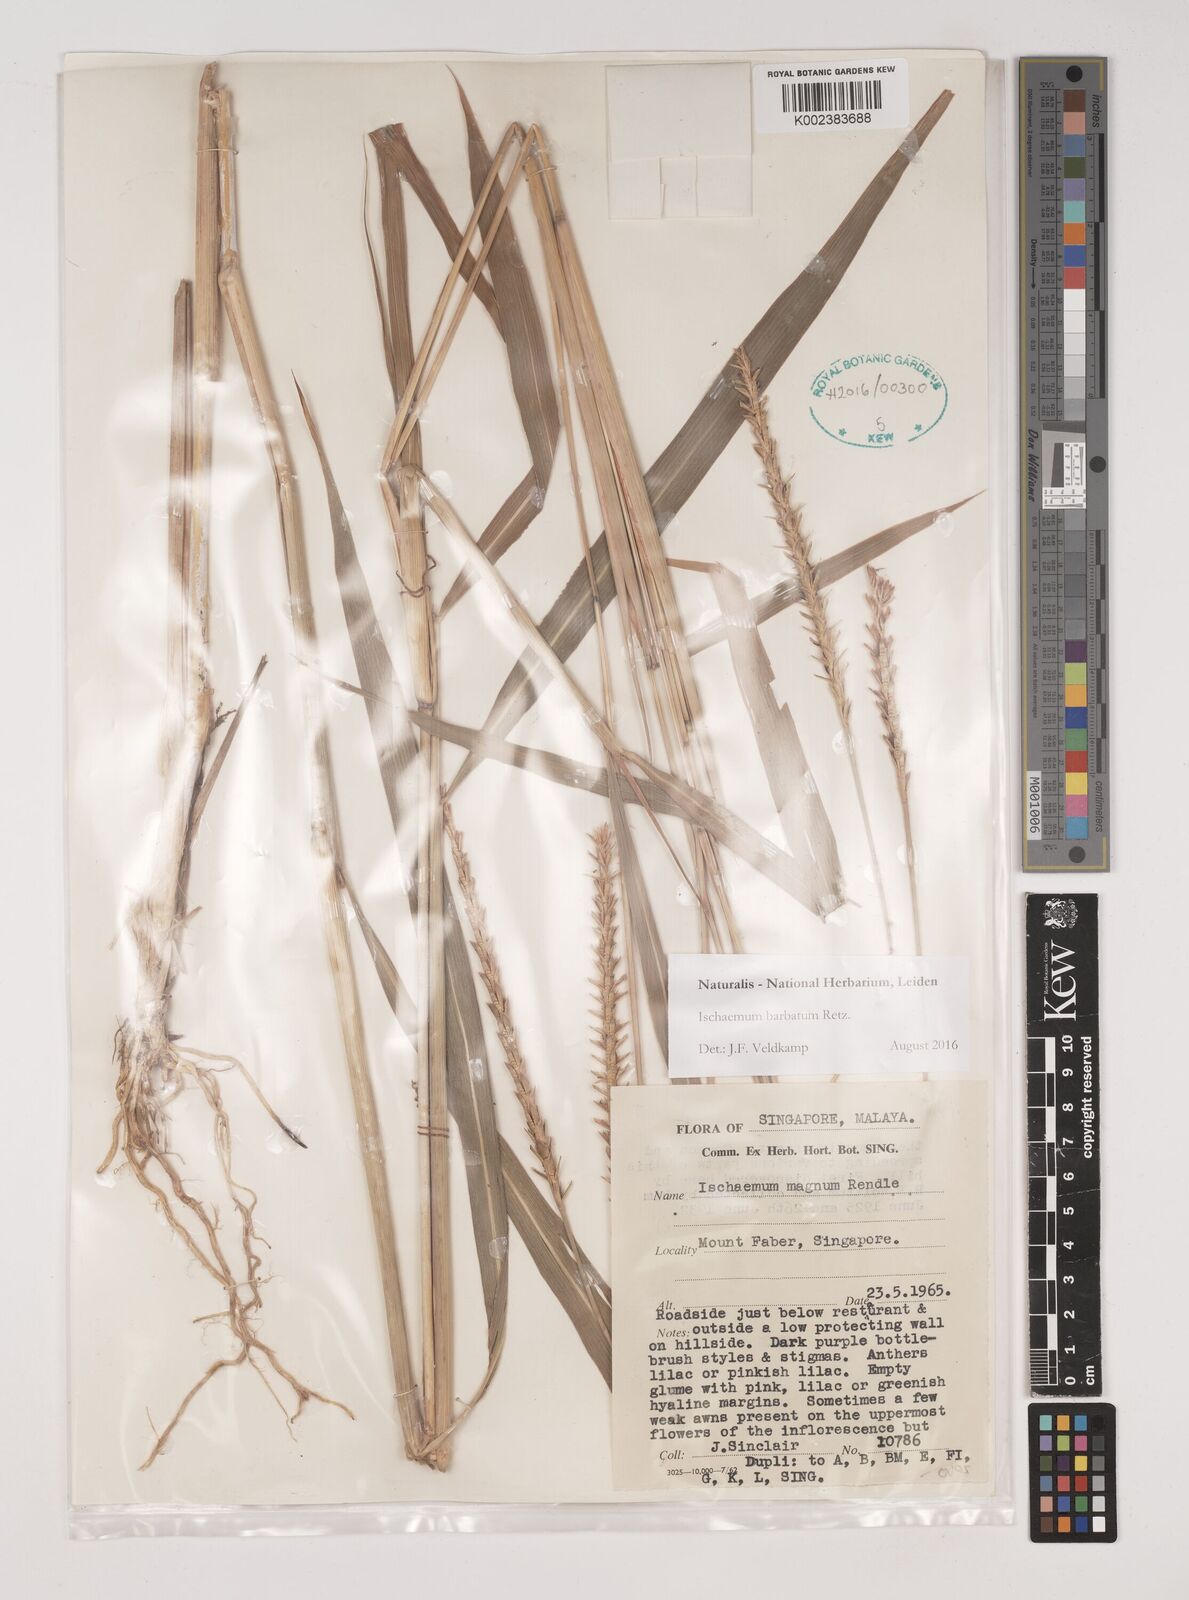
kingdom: Plantae
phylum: Tracheophyta
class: Liliopsida
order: Poales
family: Poaceae
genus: Ischaemum
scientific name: Ischaemum barbatum
